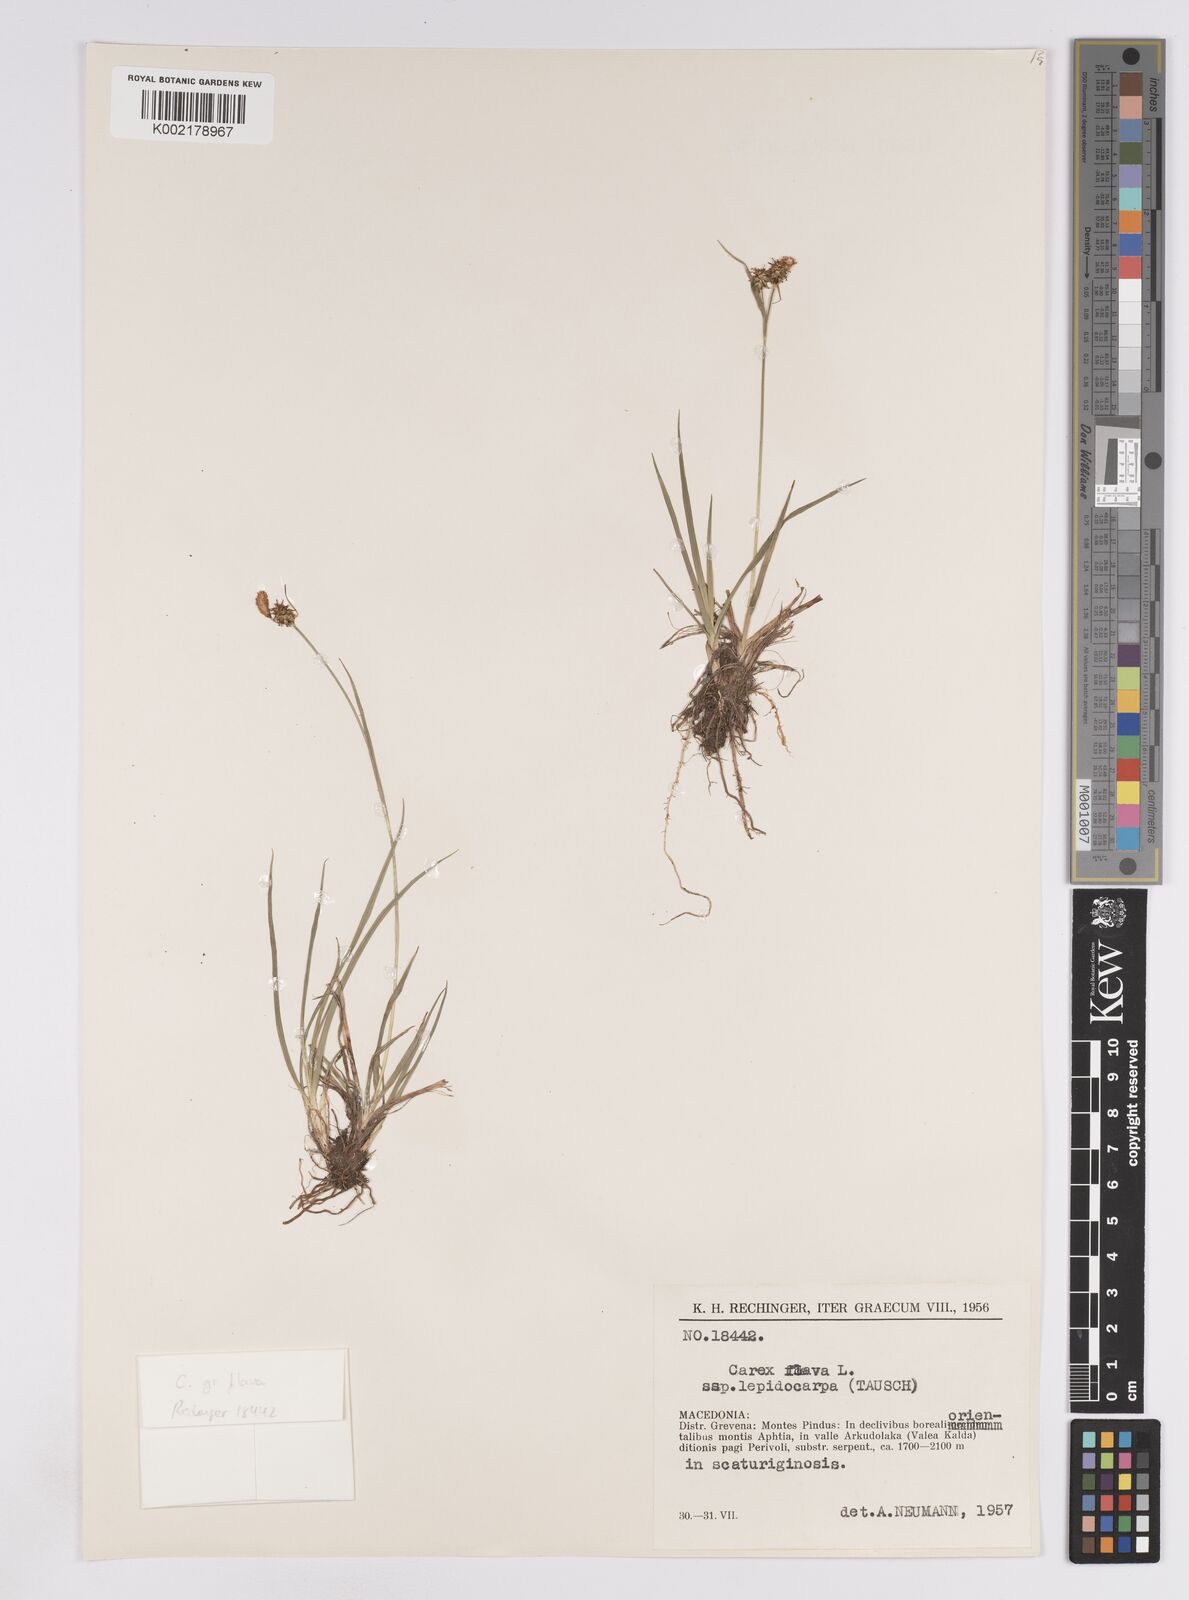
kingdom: Plantae
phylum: Tracheophyta
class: Liliopsida
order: Poales
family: Cyperaceae
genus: Carex
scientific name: Carex lepidocarpa
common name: Long-stalked yellow-sedge
